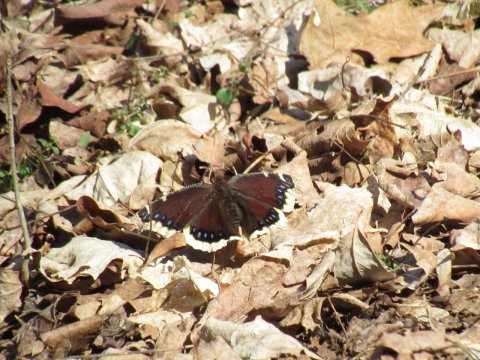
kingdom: Animalia
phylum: Arthropoda
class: Insecta
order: Lepidoptera
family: Nymphalidae
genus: Nymphalis
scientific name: Nymphalis antiopa
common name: Mourning Cloak
